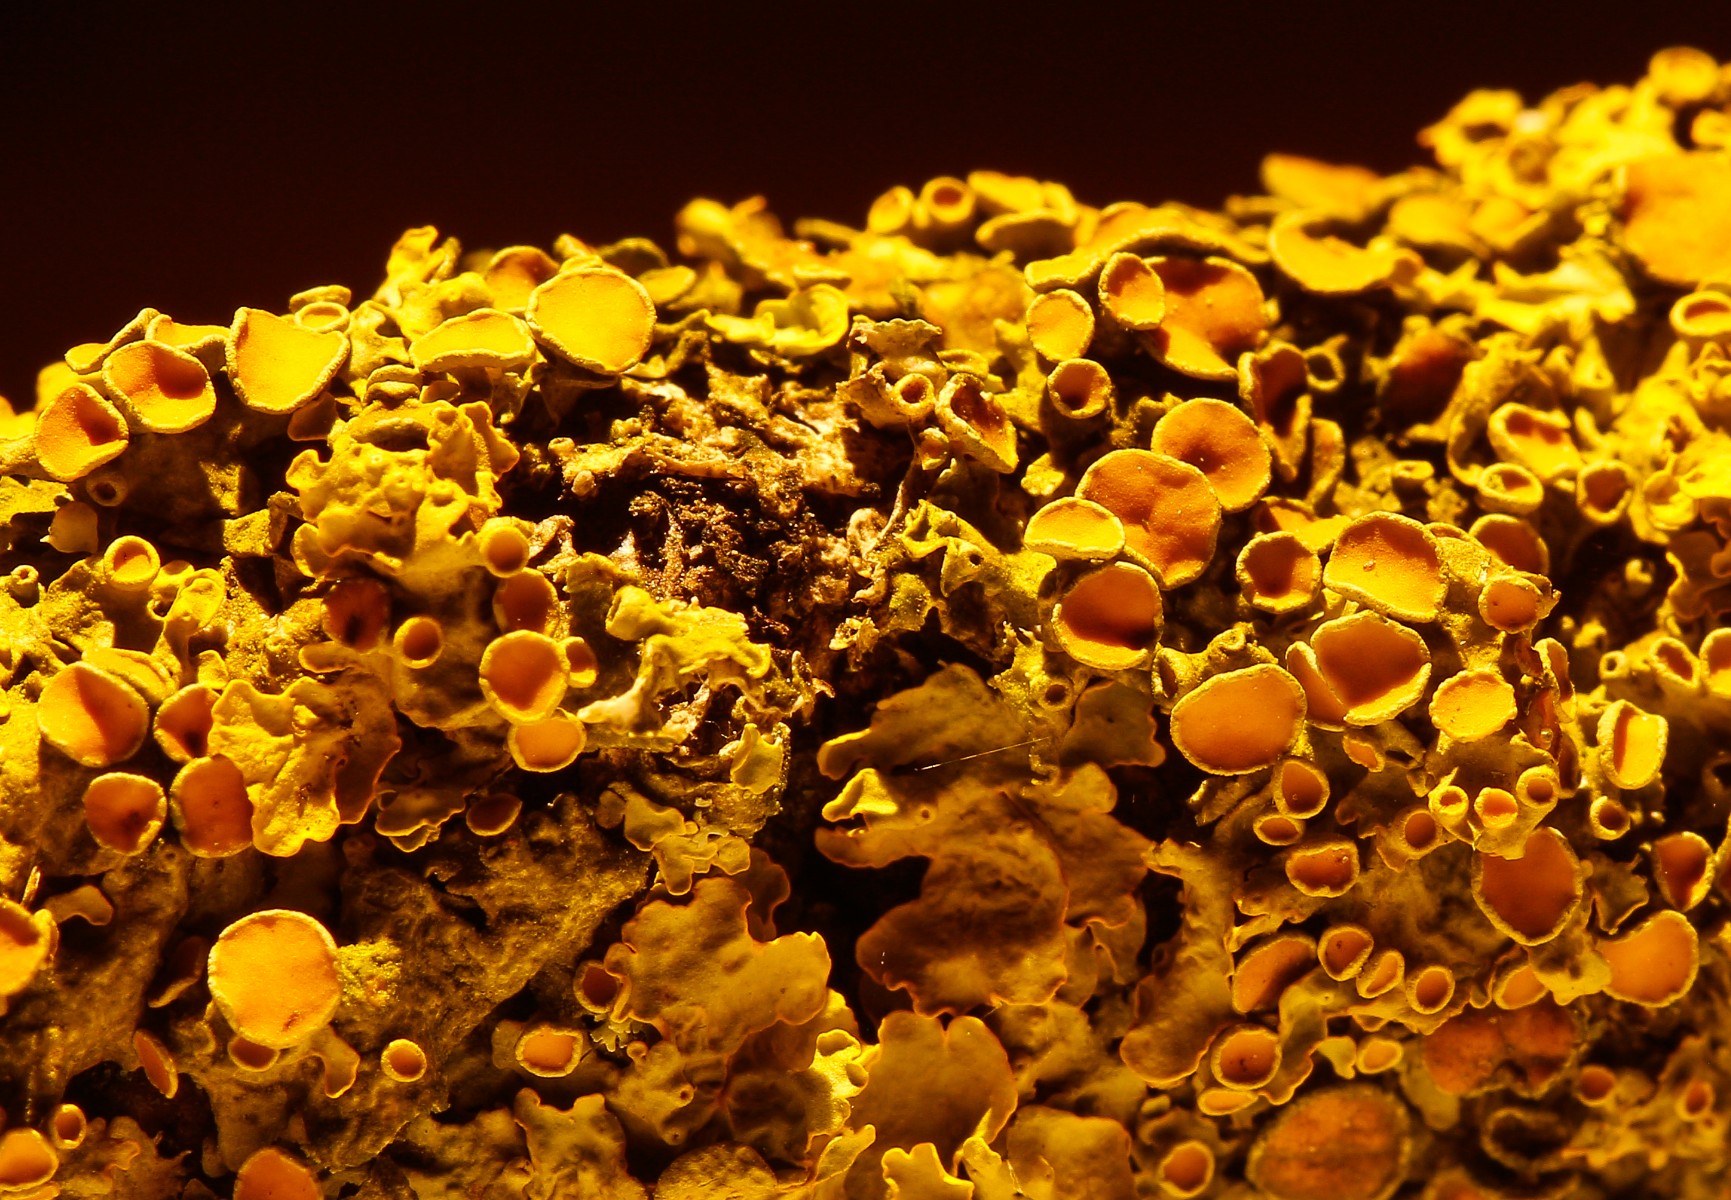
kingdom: Fungi
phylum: Ascomycota
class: Lecanoromycetes
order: Teloschistales
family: Teloschistaceae
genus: Xanthoria
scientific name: Xanthoria parietina
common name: almindelig væggelav
